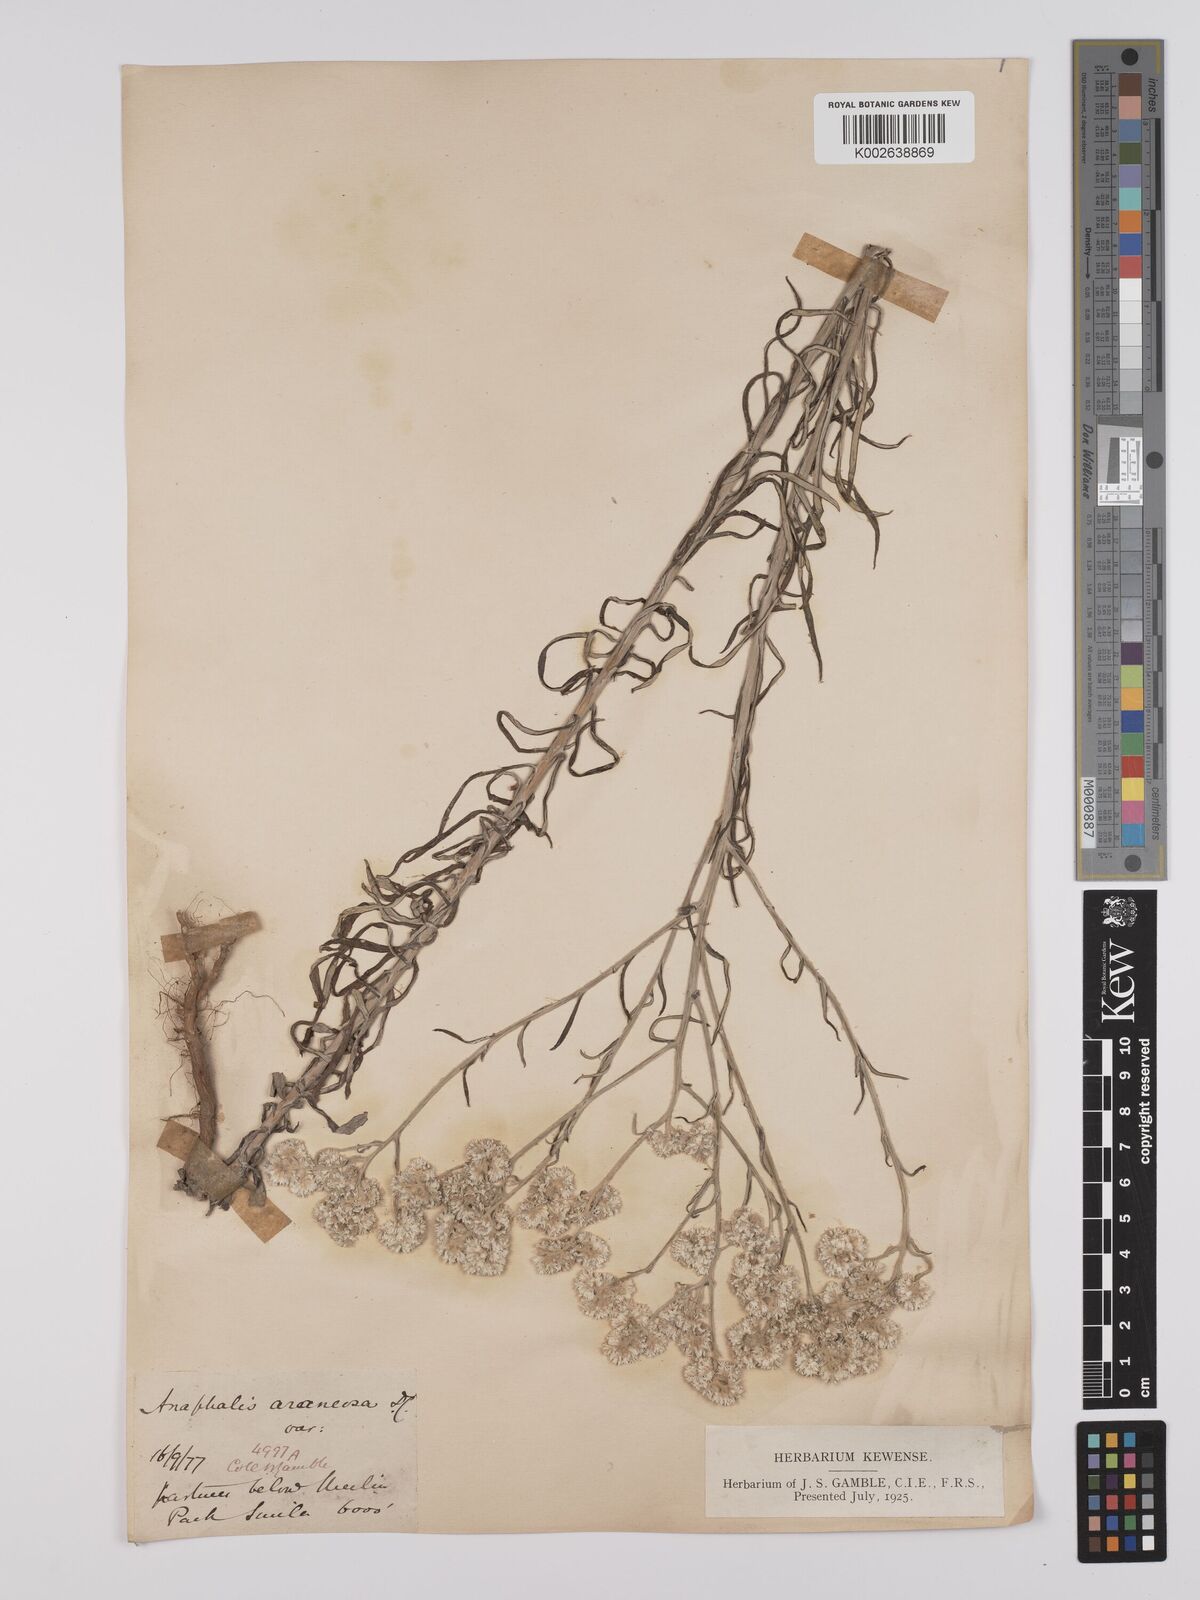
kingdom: Plantae
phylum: Tracheophyta
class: Magnoliopsida
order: Asterales
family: Asteraceae
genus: Anaphalis
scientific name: Anaphalis busua
